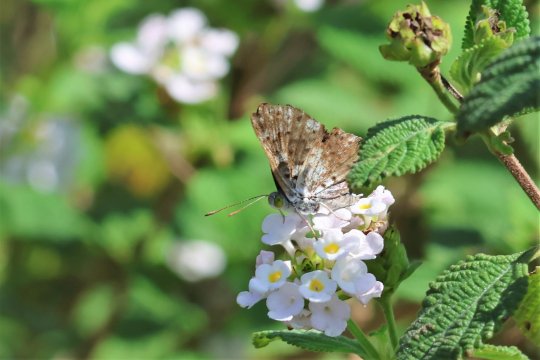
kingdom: Animalia
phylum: Arthropoda
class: Insecta
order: Lepidoptera
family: Riodinidae
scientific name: Riodinidae
